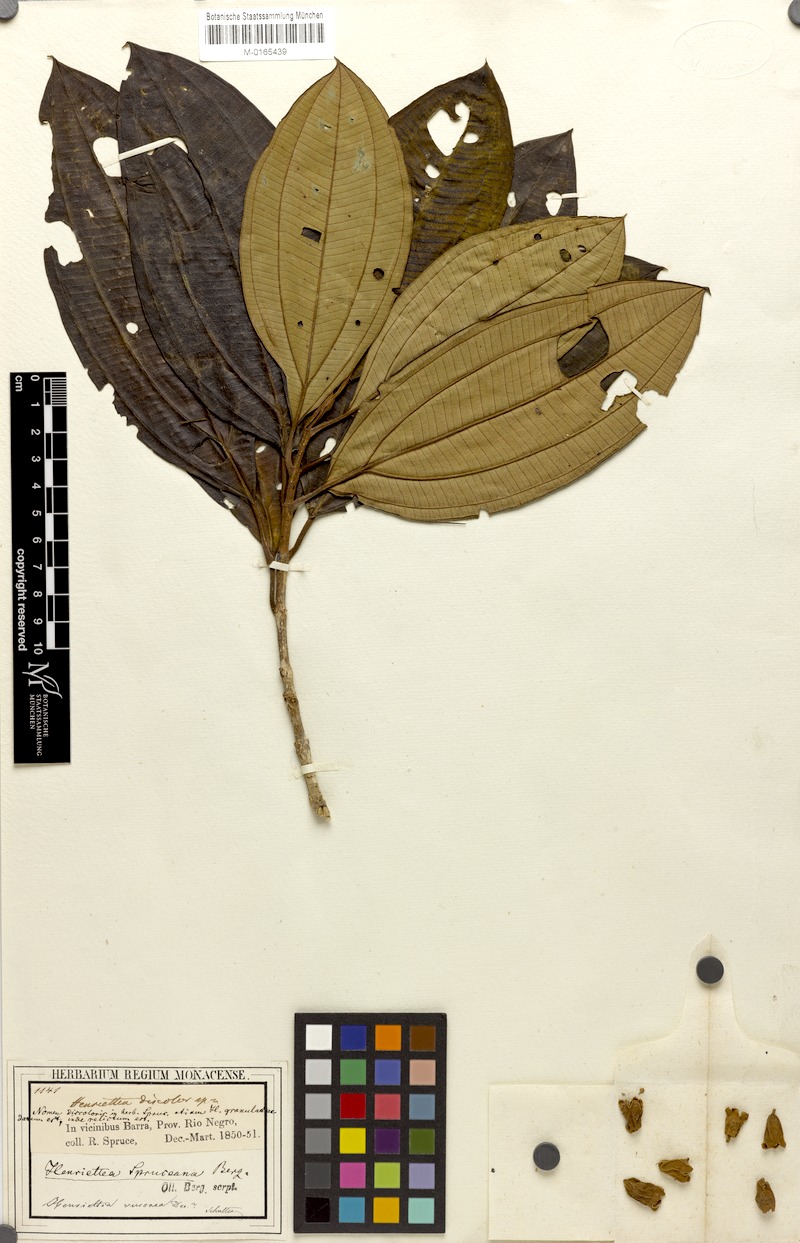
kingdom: Plantae
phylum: Tracheophyta
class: Magnoliopsida
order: Myrtales
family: Melastomataceae
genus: Henriettea
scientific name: Henriettea spruceana
